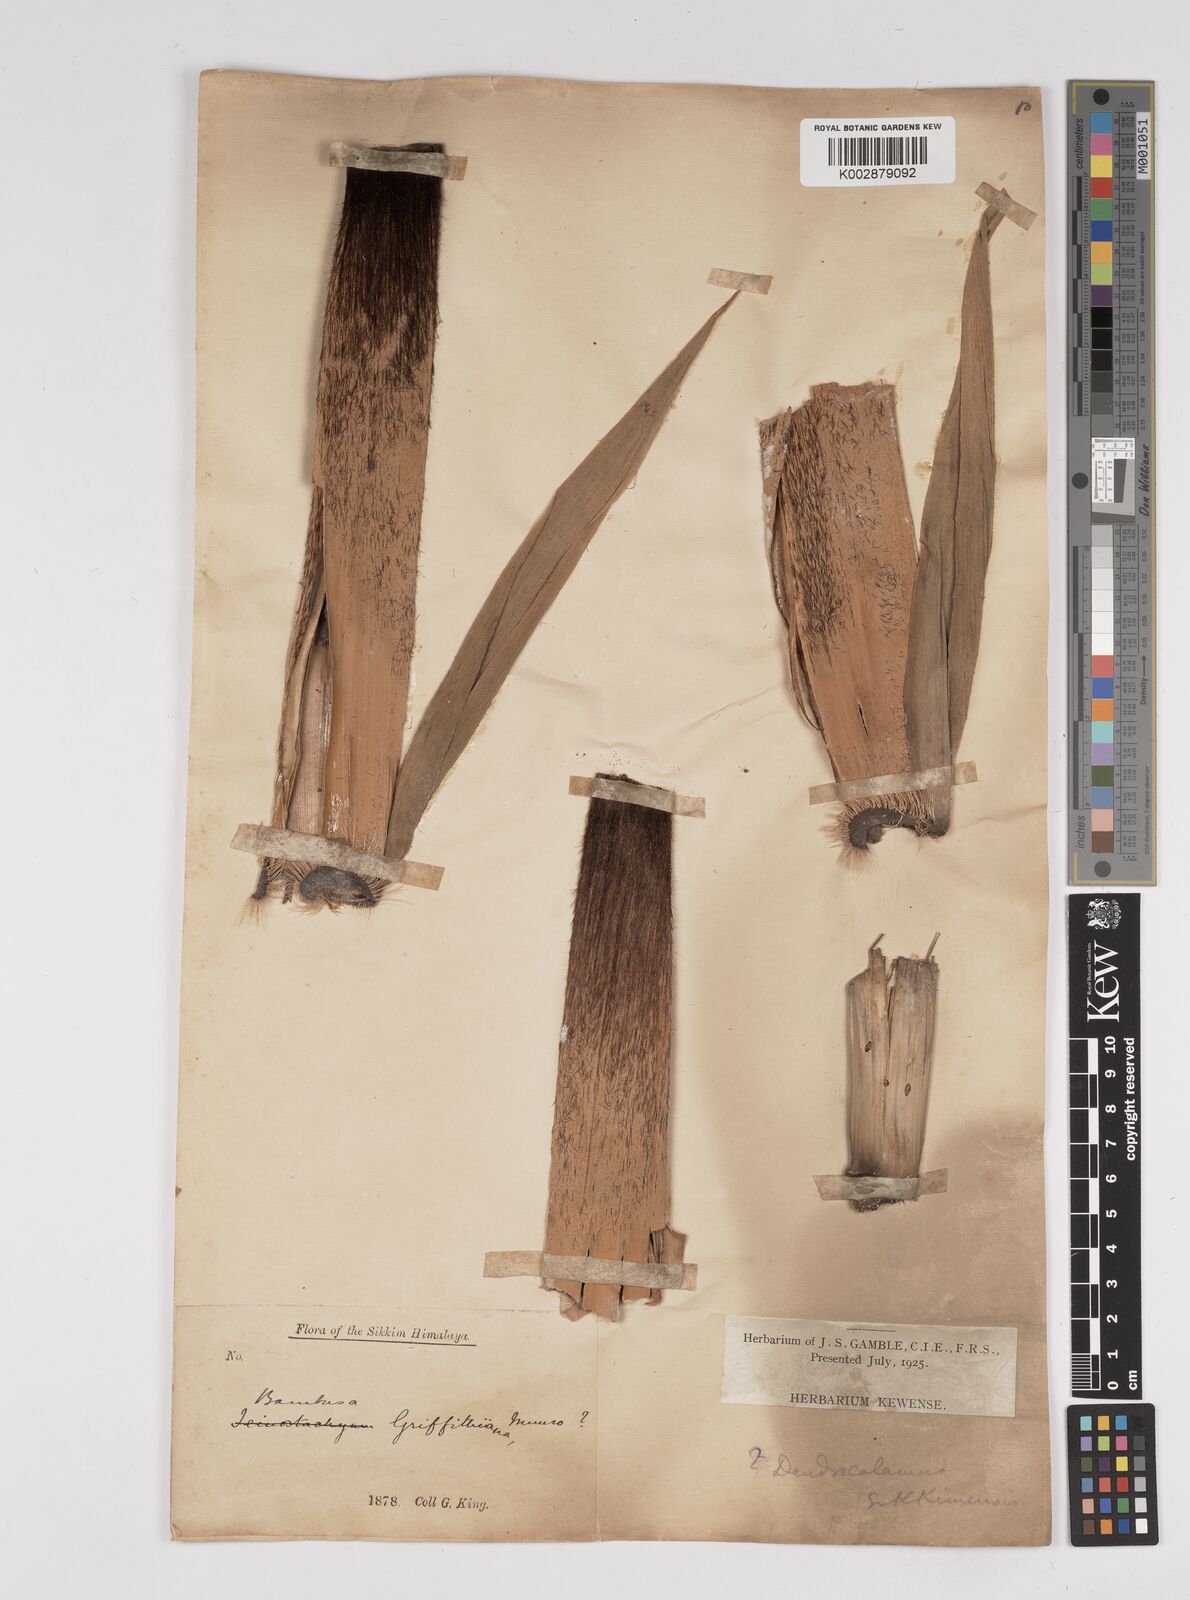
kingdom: Plantae
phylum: Tracheophyta
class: Liliopsida
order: Poales
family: Poaceae
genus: Dendrocalamus
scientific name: Dendrocalamus sikkimensis
